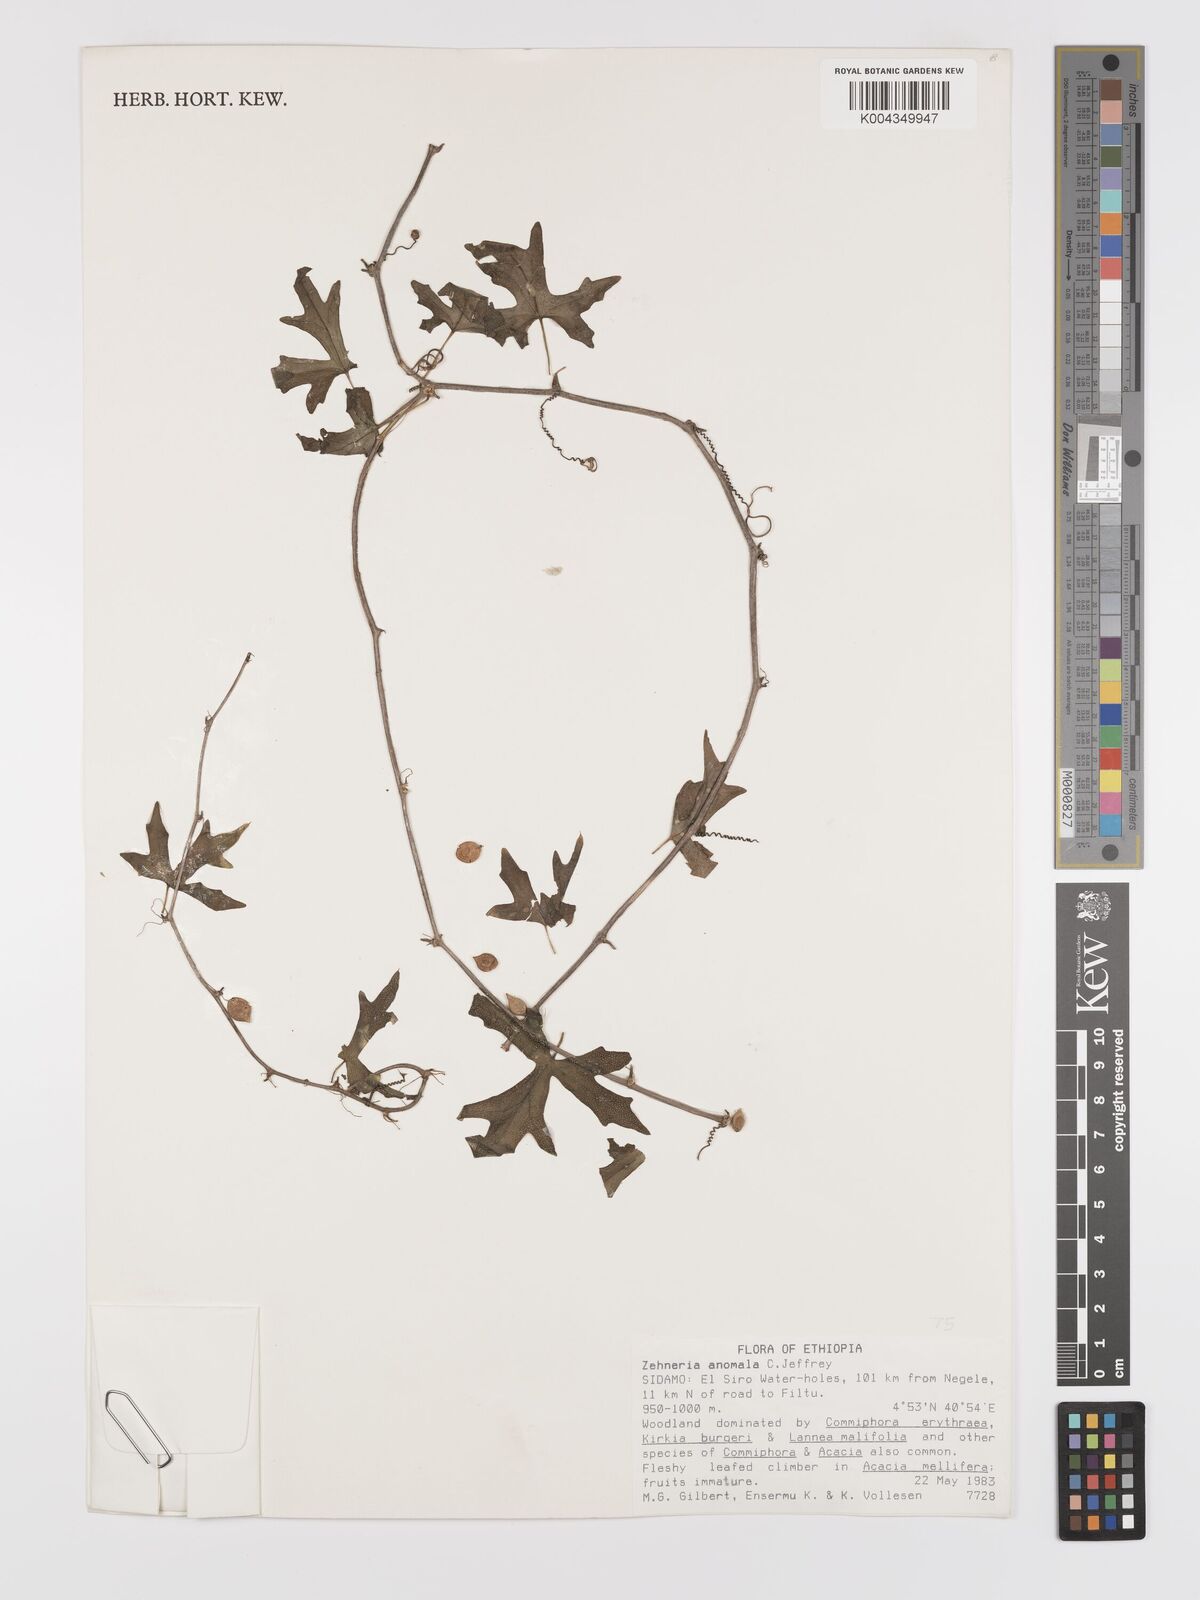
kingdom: Plantae
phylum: Tracheophyta
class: Magnoliopsida
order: Cucurbitales
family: Cucurbitaceae
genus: Zehneria
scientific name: Zehneria anomala
